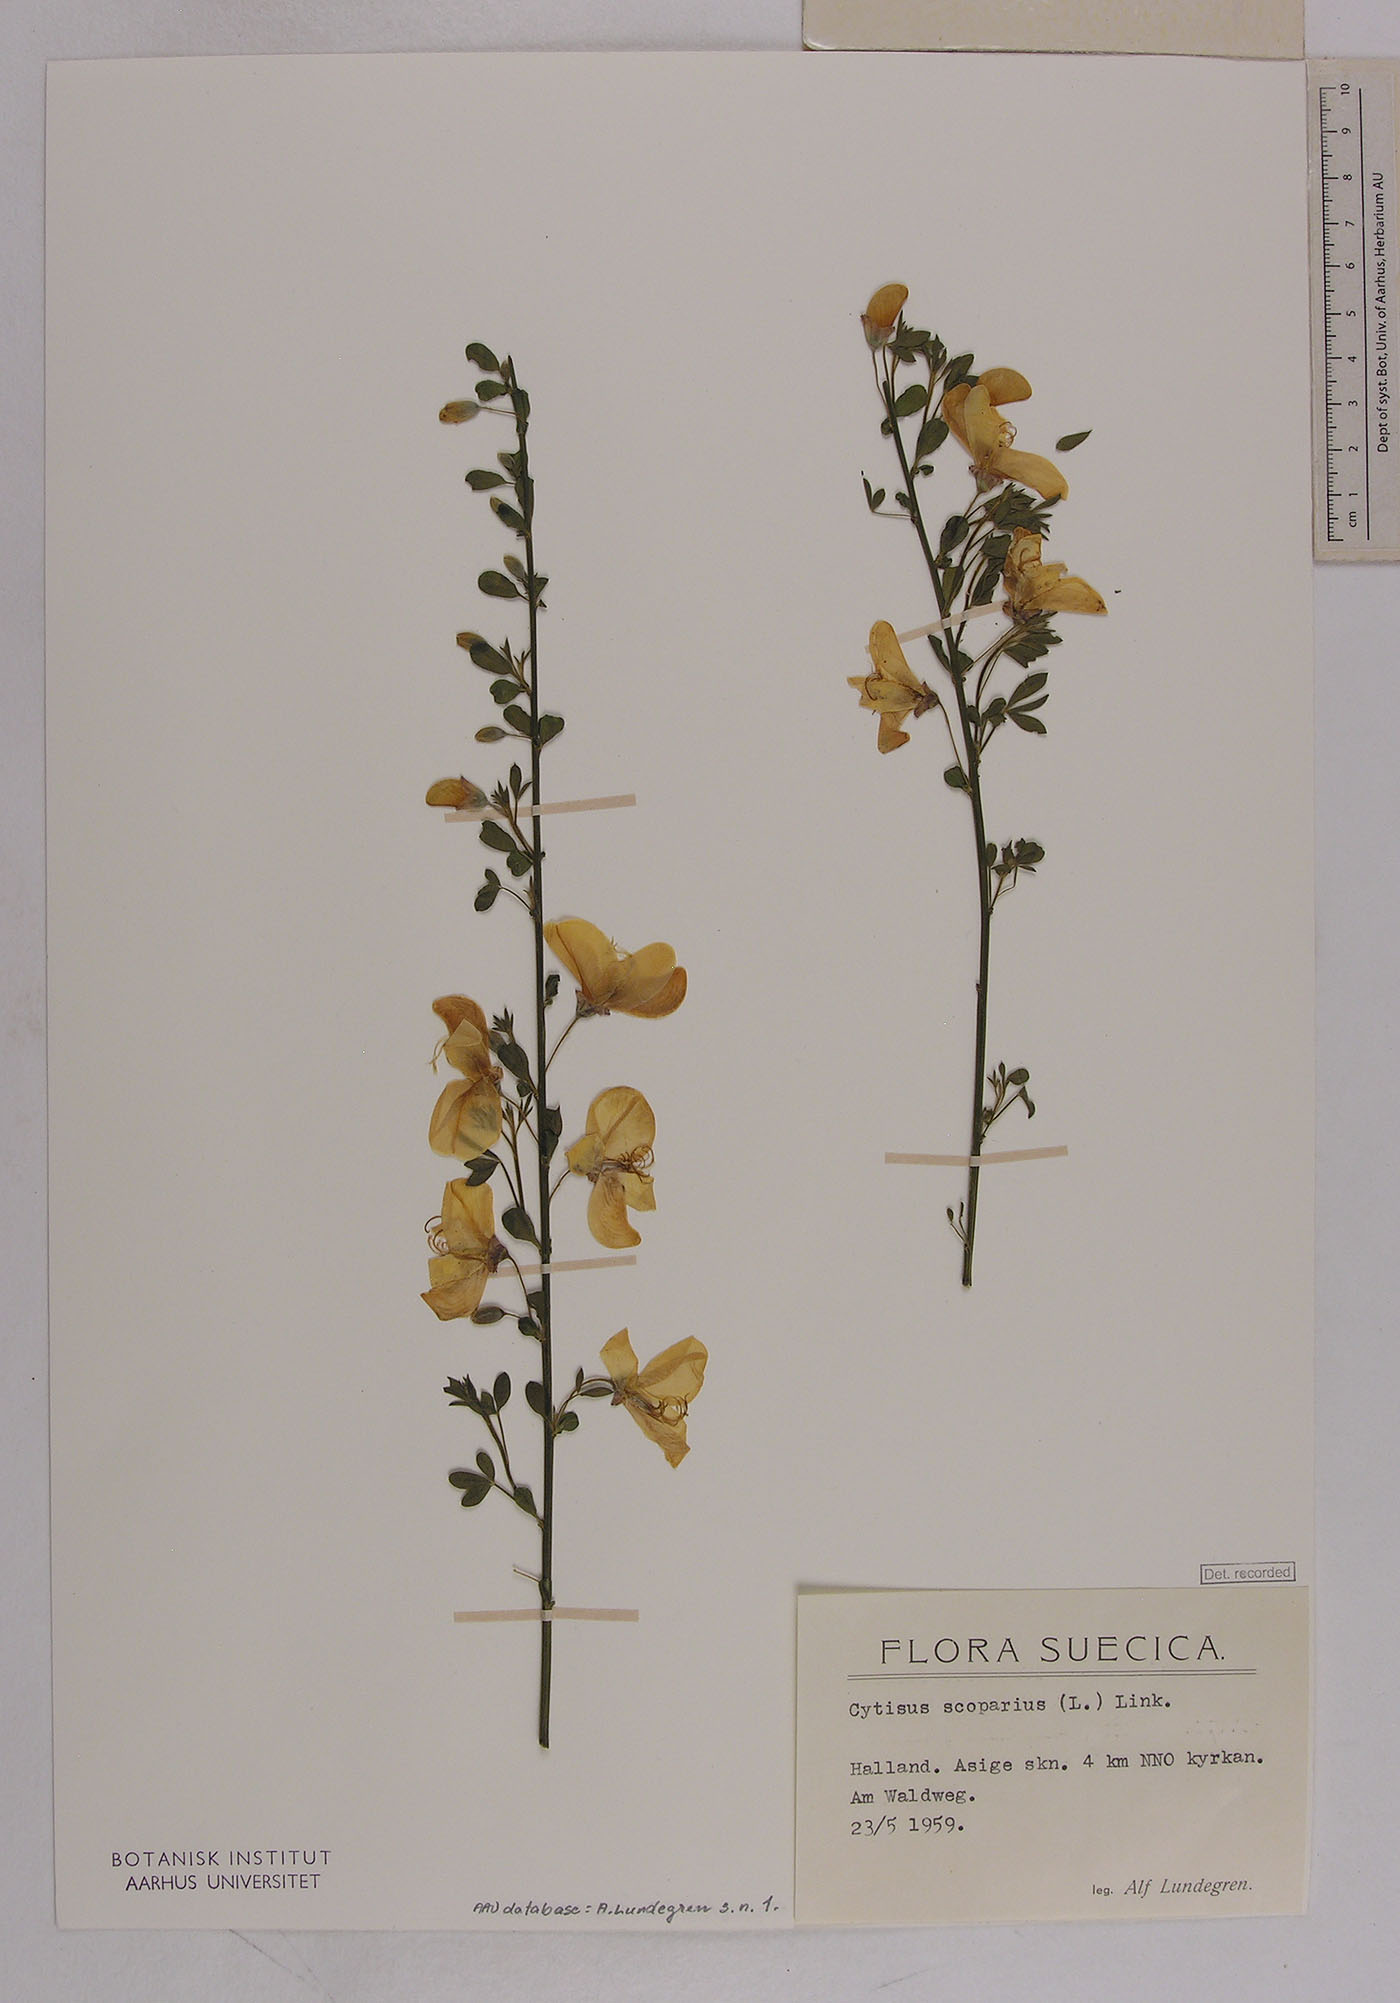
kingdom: Plantae
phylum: Tracheophyta
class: Magnoliopsida
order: Fabales
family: Fabaceae
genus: Cytisus
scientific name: Cytisus scoparius
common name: Scotch broom
